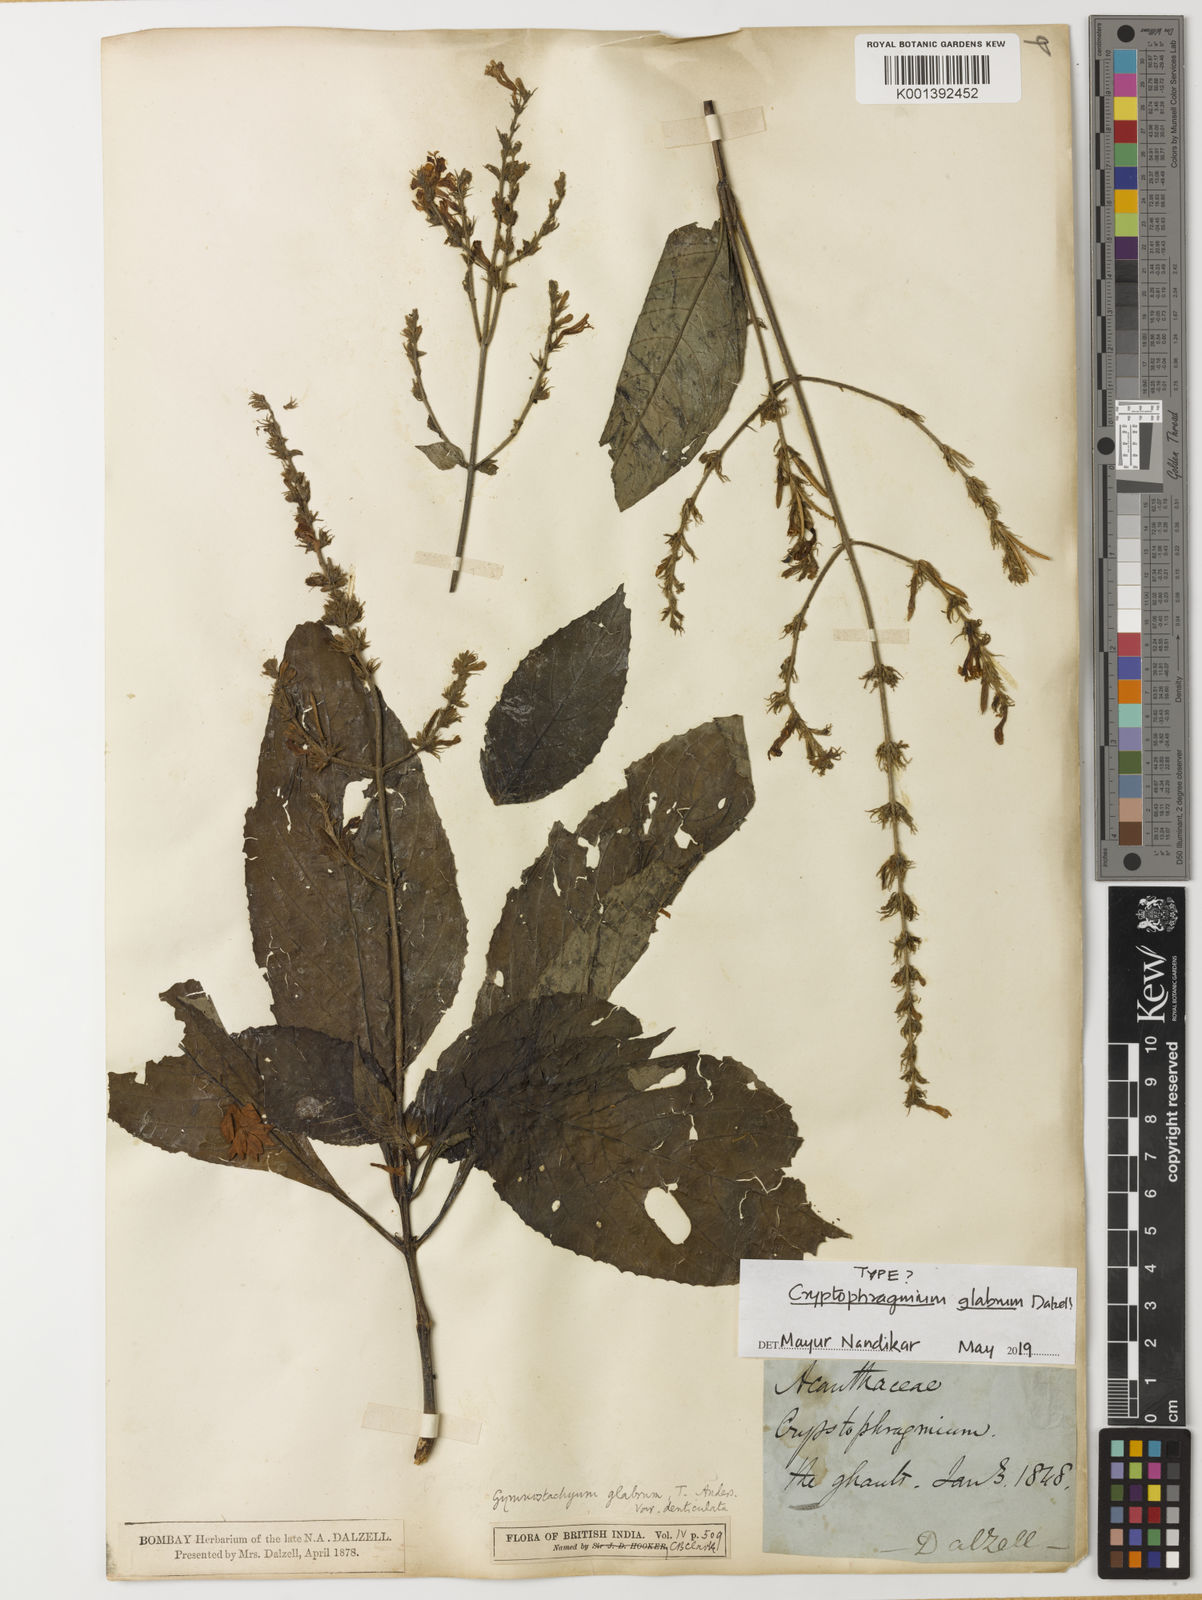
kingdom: Plantae
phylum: Tracheophyta
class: Magnoliopsida
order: Lamiales
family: Acanthaceae
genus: Gymnostachyum
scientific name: Gymnostachyum glabrum
